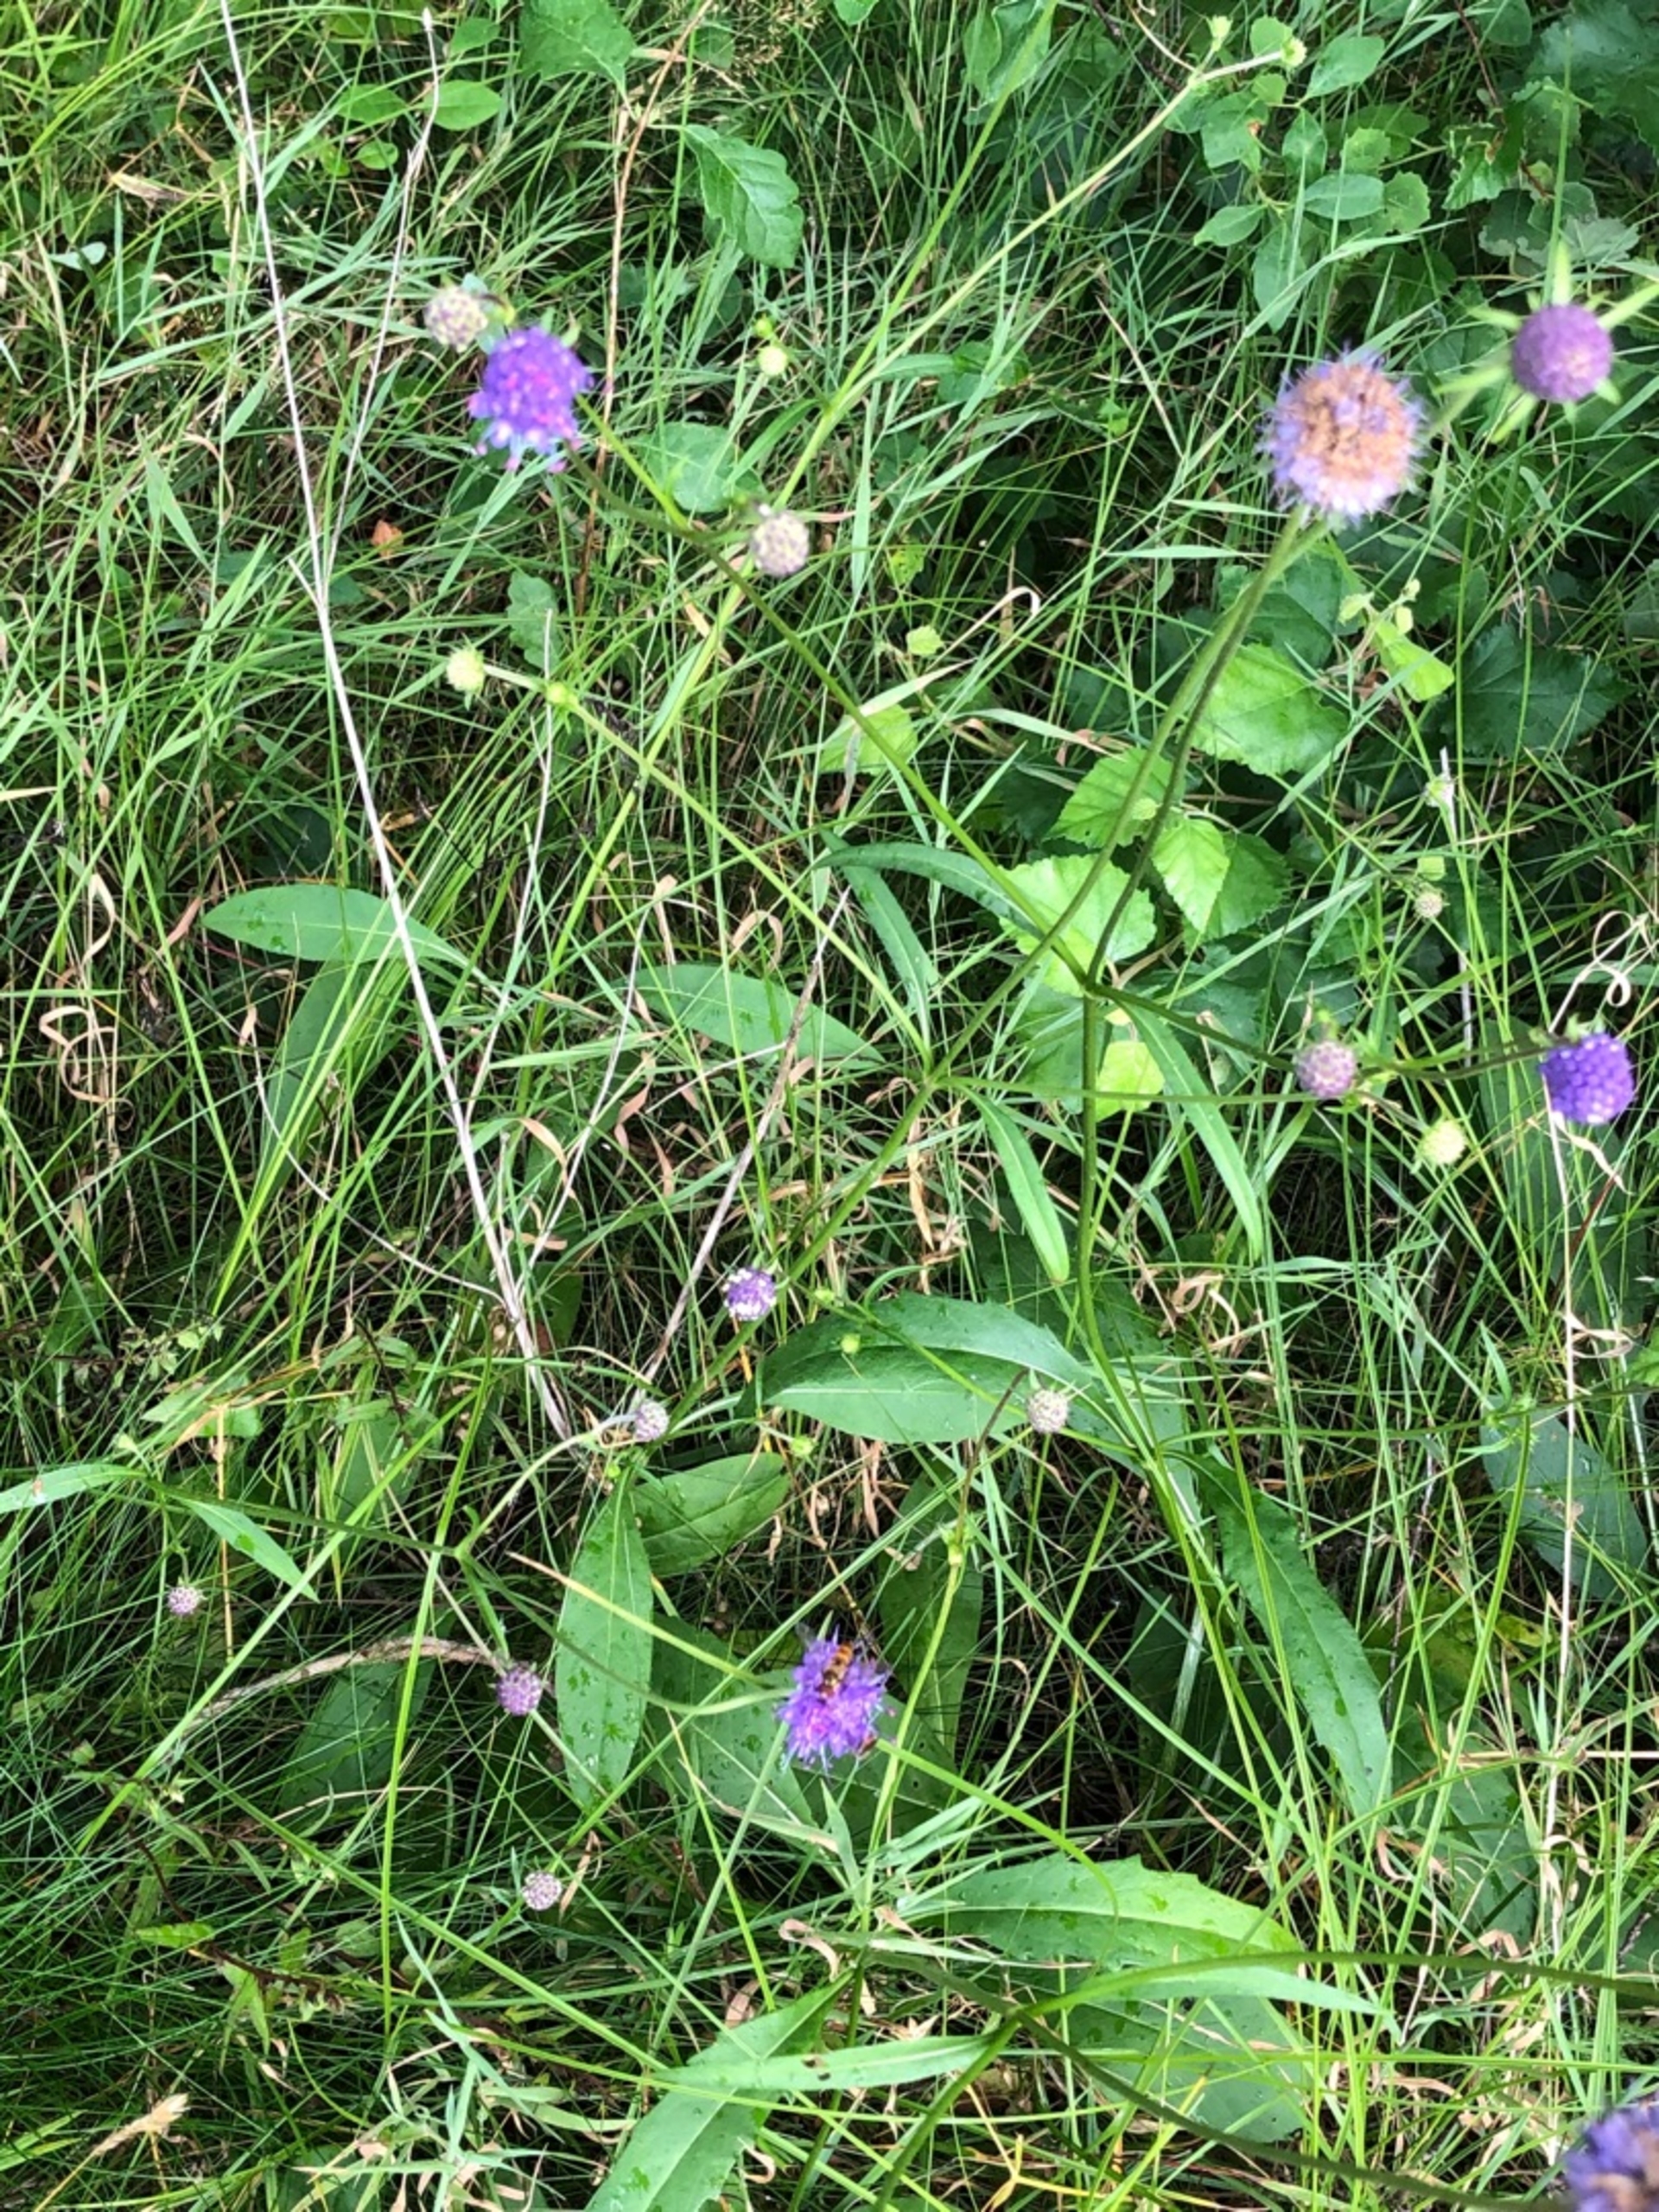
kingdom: Plantae
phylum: Tracheophyta
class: Magnoliopsida
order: Dipsacales
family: Caprifoliaceae
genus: Succisa
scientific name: Succisa pratensis
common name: Djævelsbid
